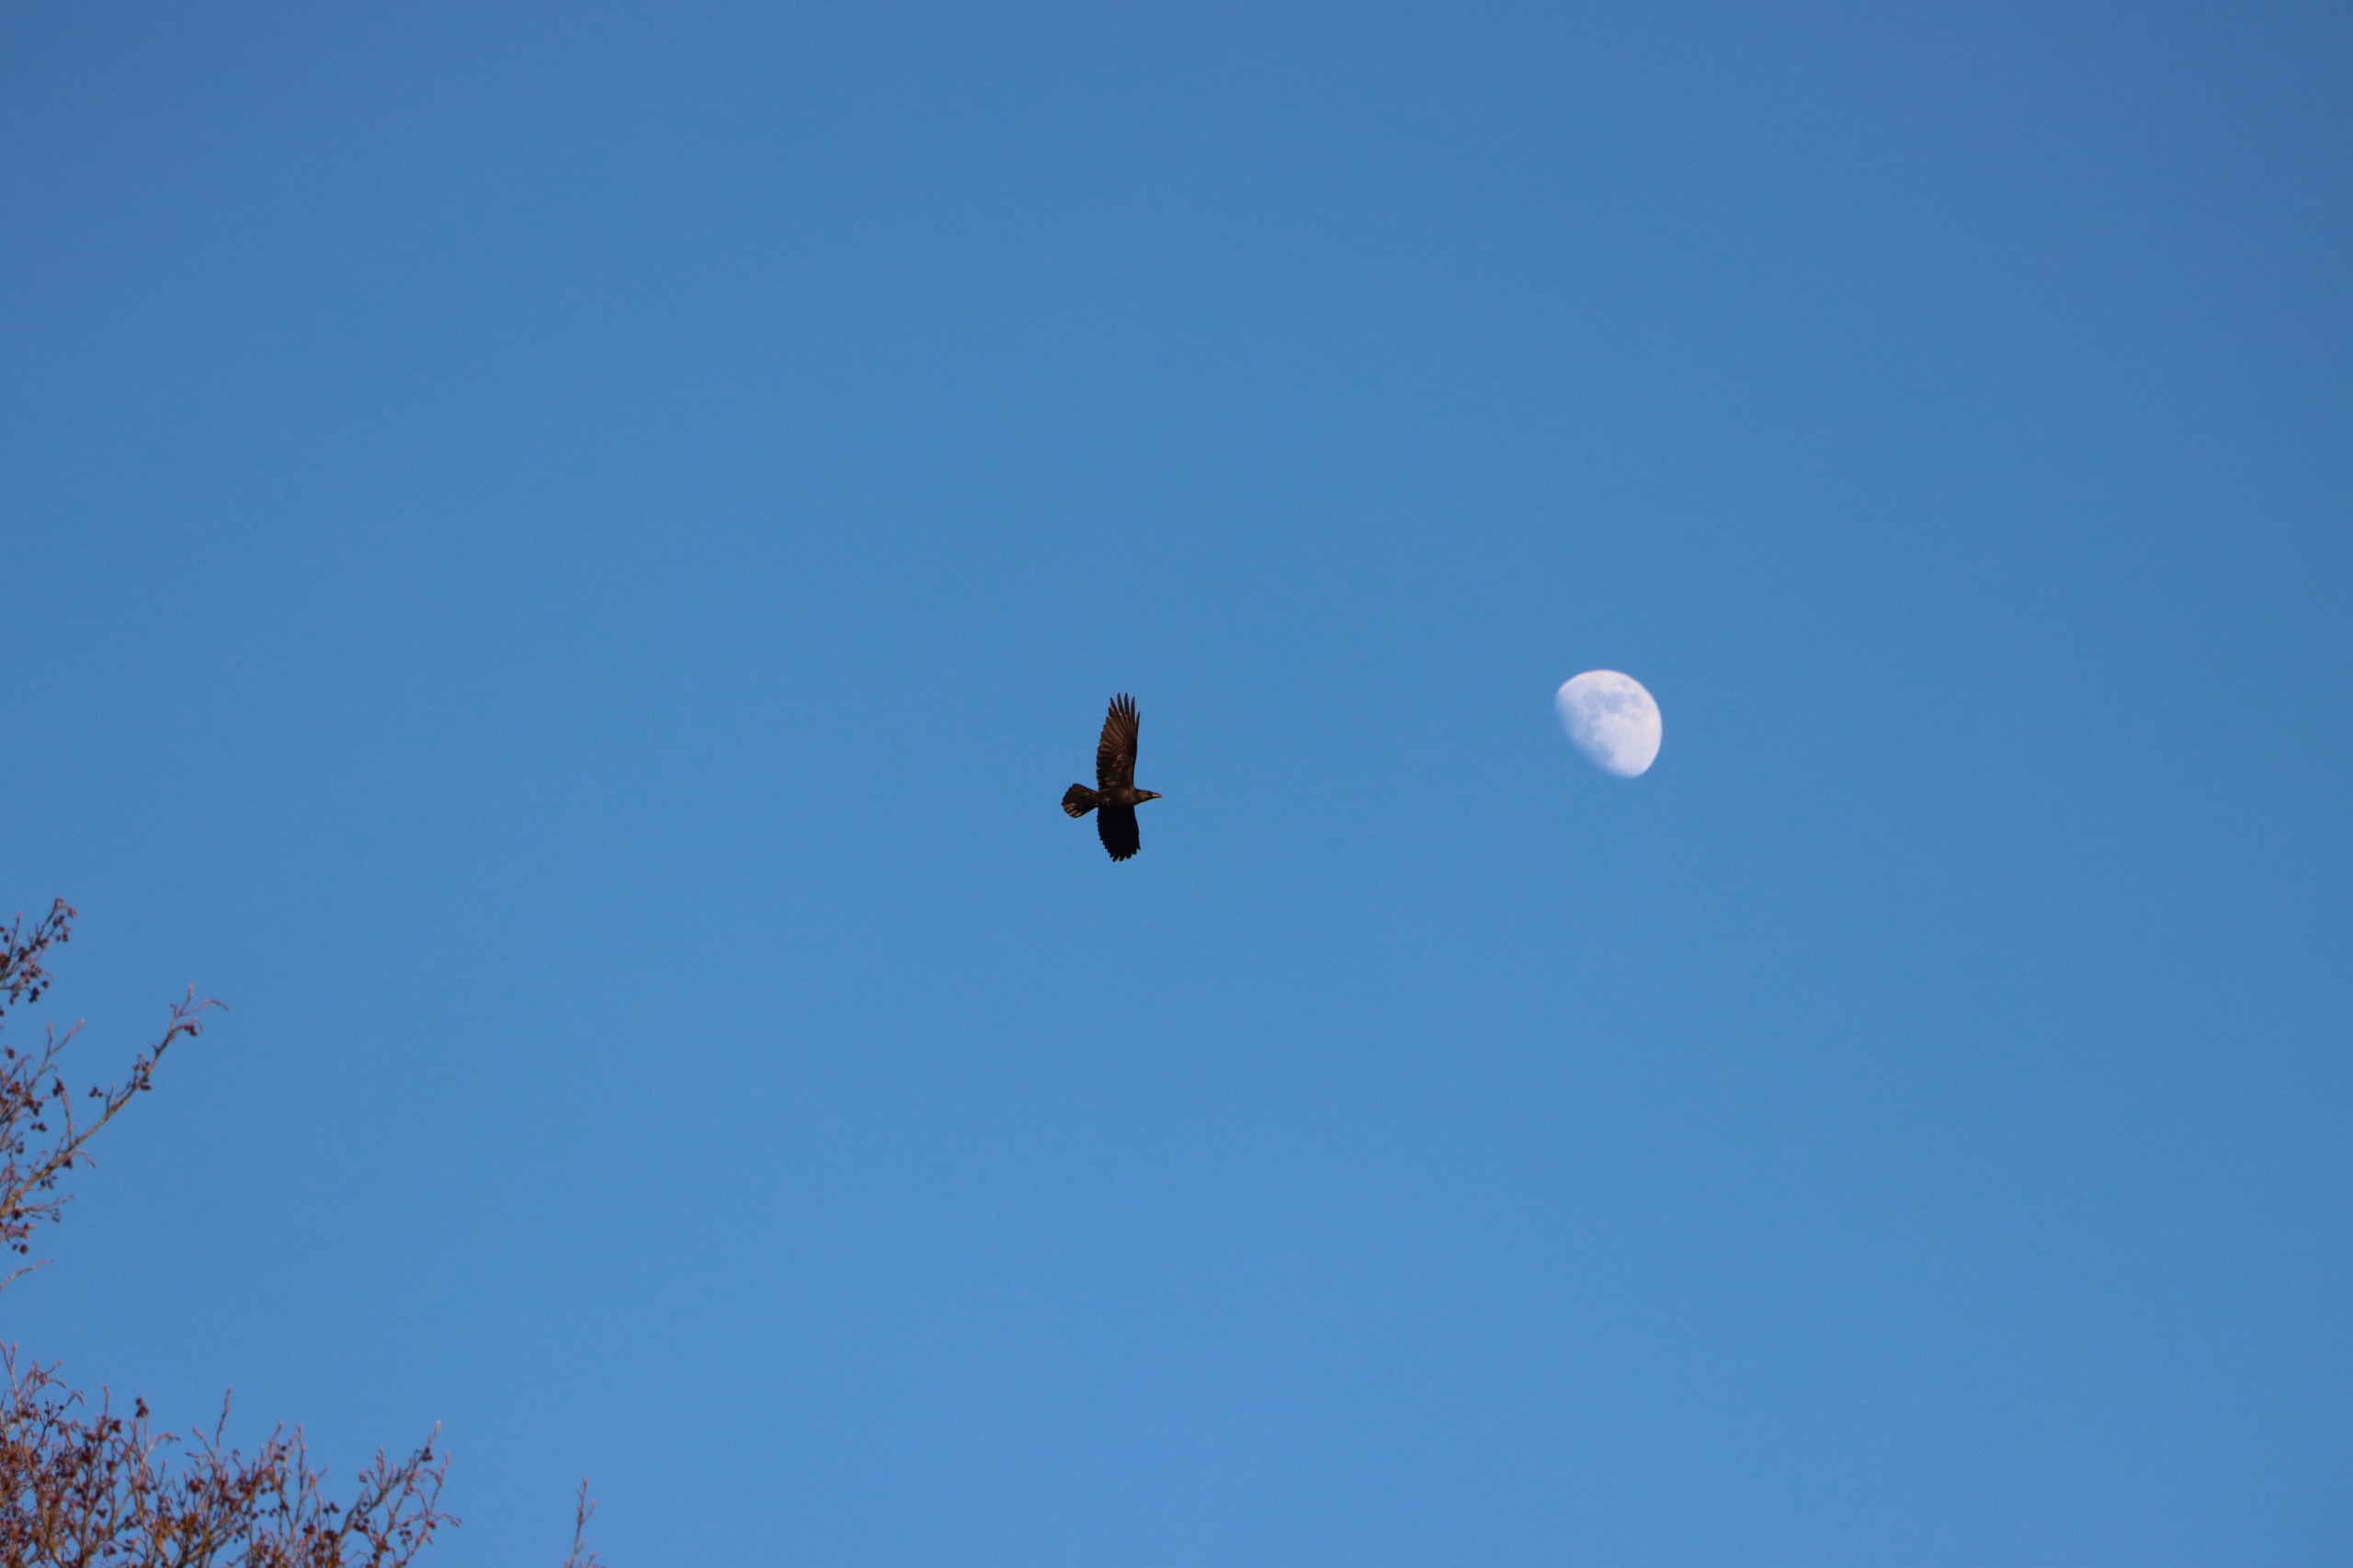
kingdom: Animalia
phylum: Chordata
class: Aves
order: Passeriformes
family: Corvidae
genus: Corvus
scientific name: Corvus corax
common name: Ravn
